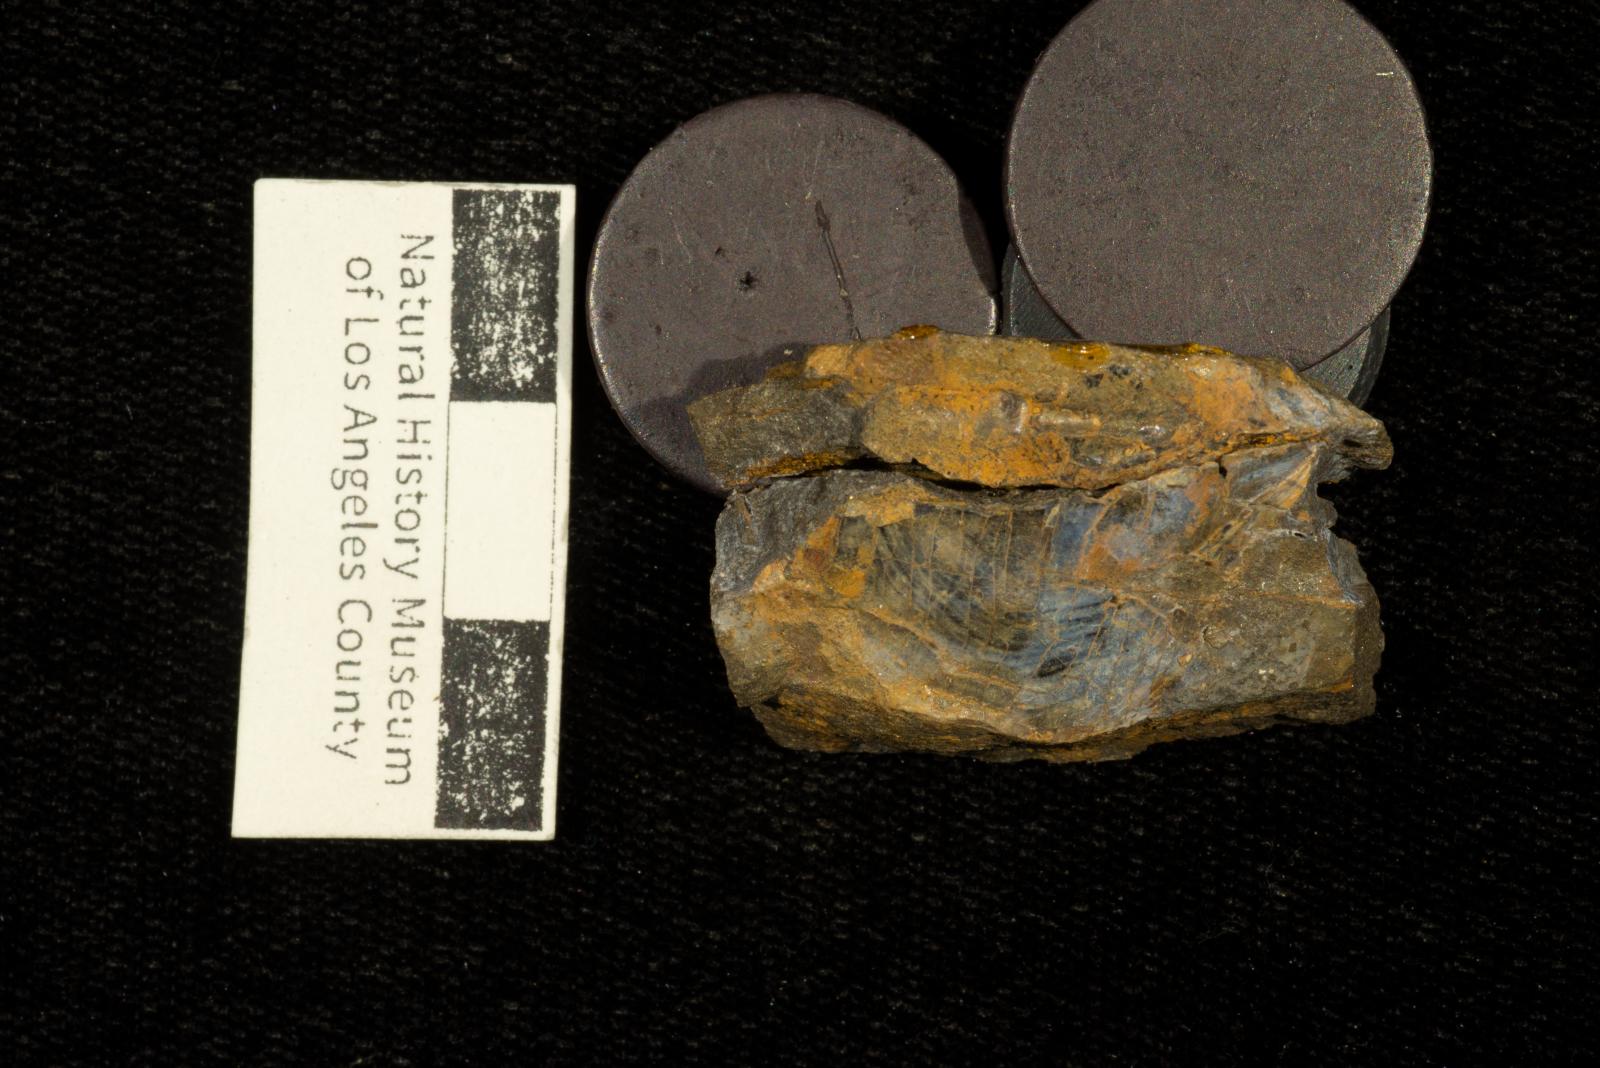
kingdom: Animalia
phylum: Mollusca
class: Bivalvia
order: Myalinida
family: Inoceramidae
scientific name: Inoceramidae
